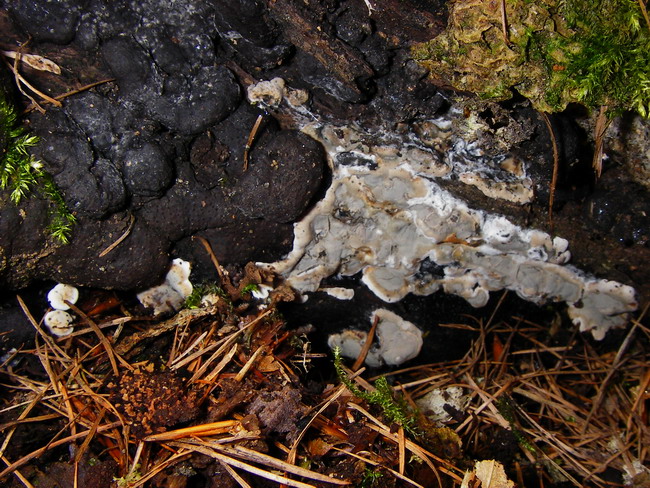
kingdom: Fungi
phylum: Ascomycota
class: Sordariomycetes
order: Xylariales
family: Xylariaceae
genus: Kretzschmaria
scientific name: Kretzschmaria deusta
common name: stor kulsvamp
